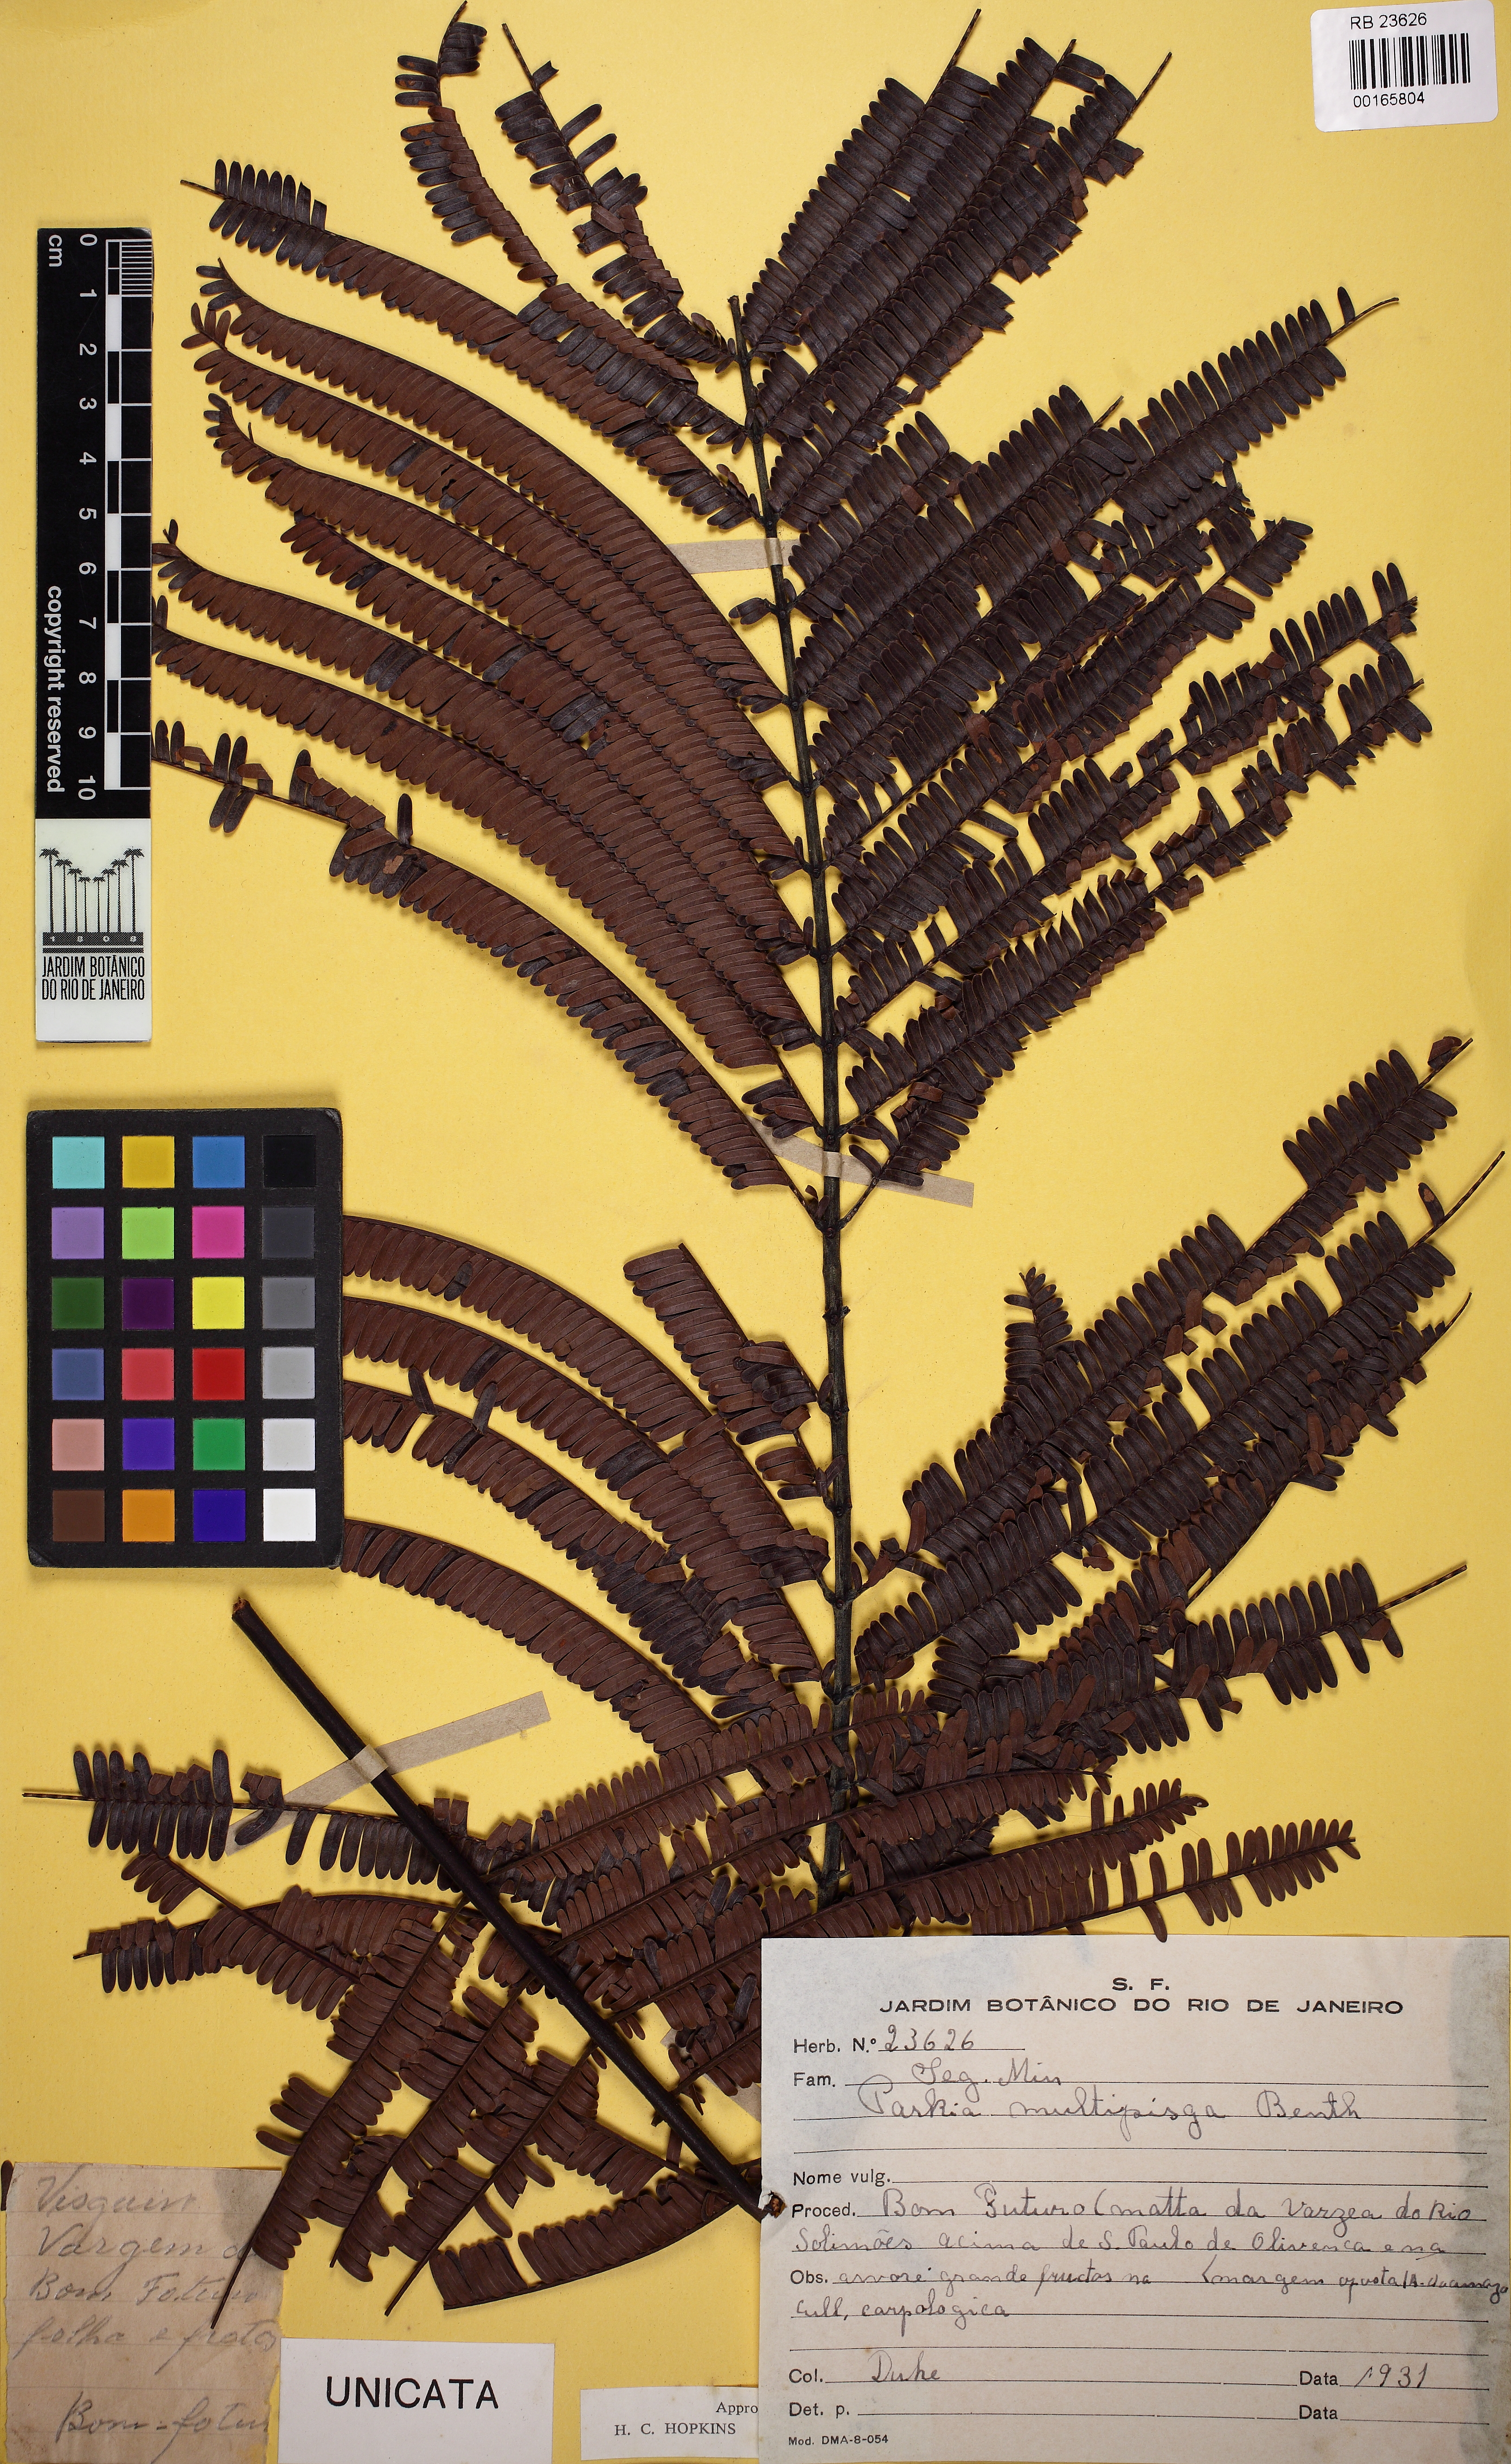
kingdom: Plantae
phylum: Tracheophyta
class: Magnoliopsida
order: Fabales
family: Fabaceae
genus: Parkia
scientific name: Parkia multijuga
